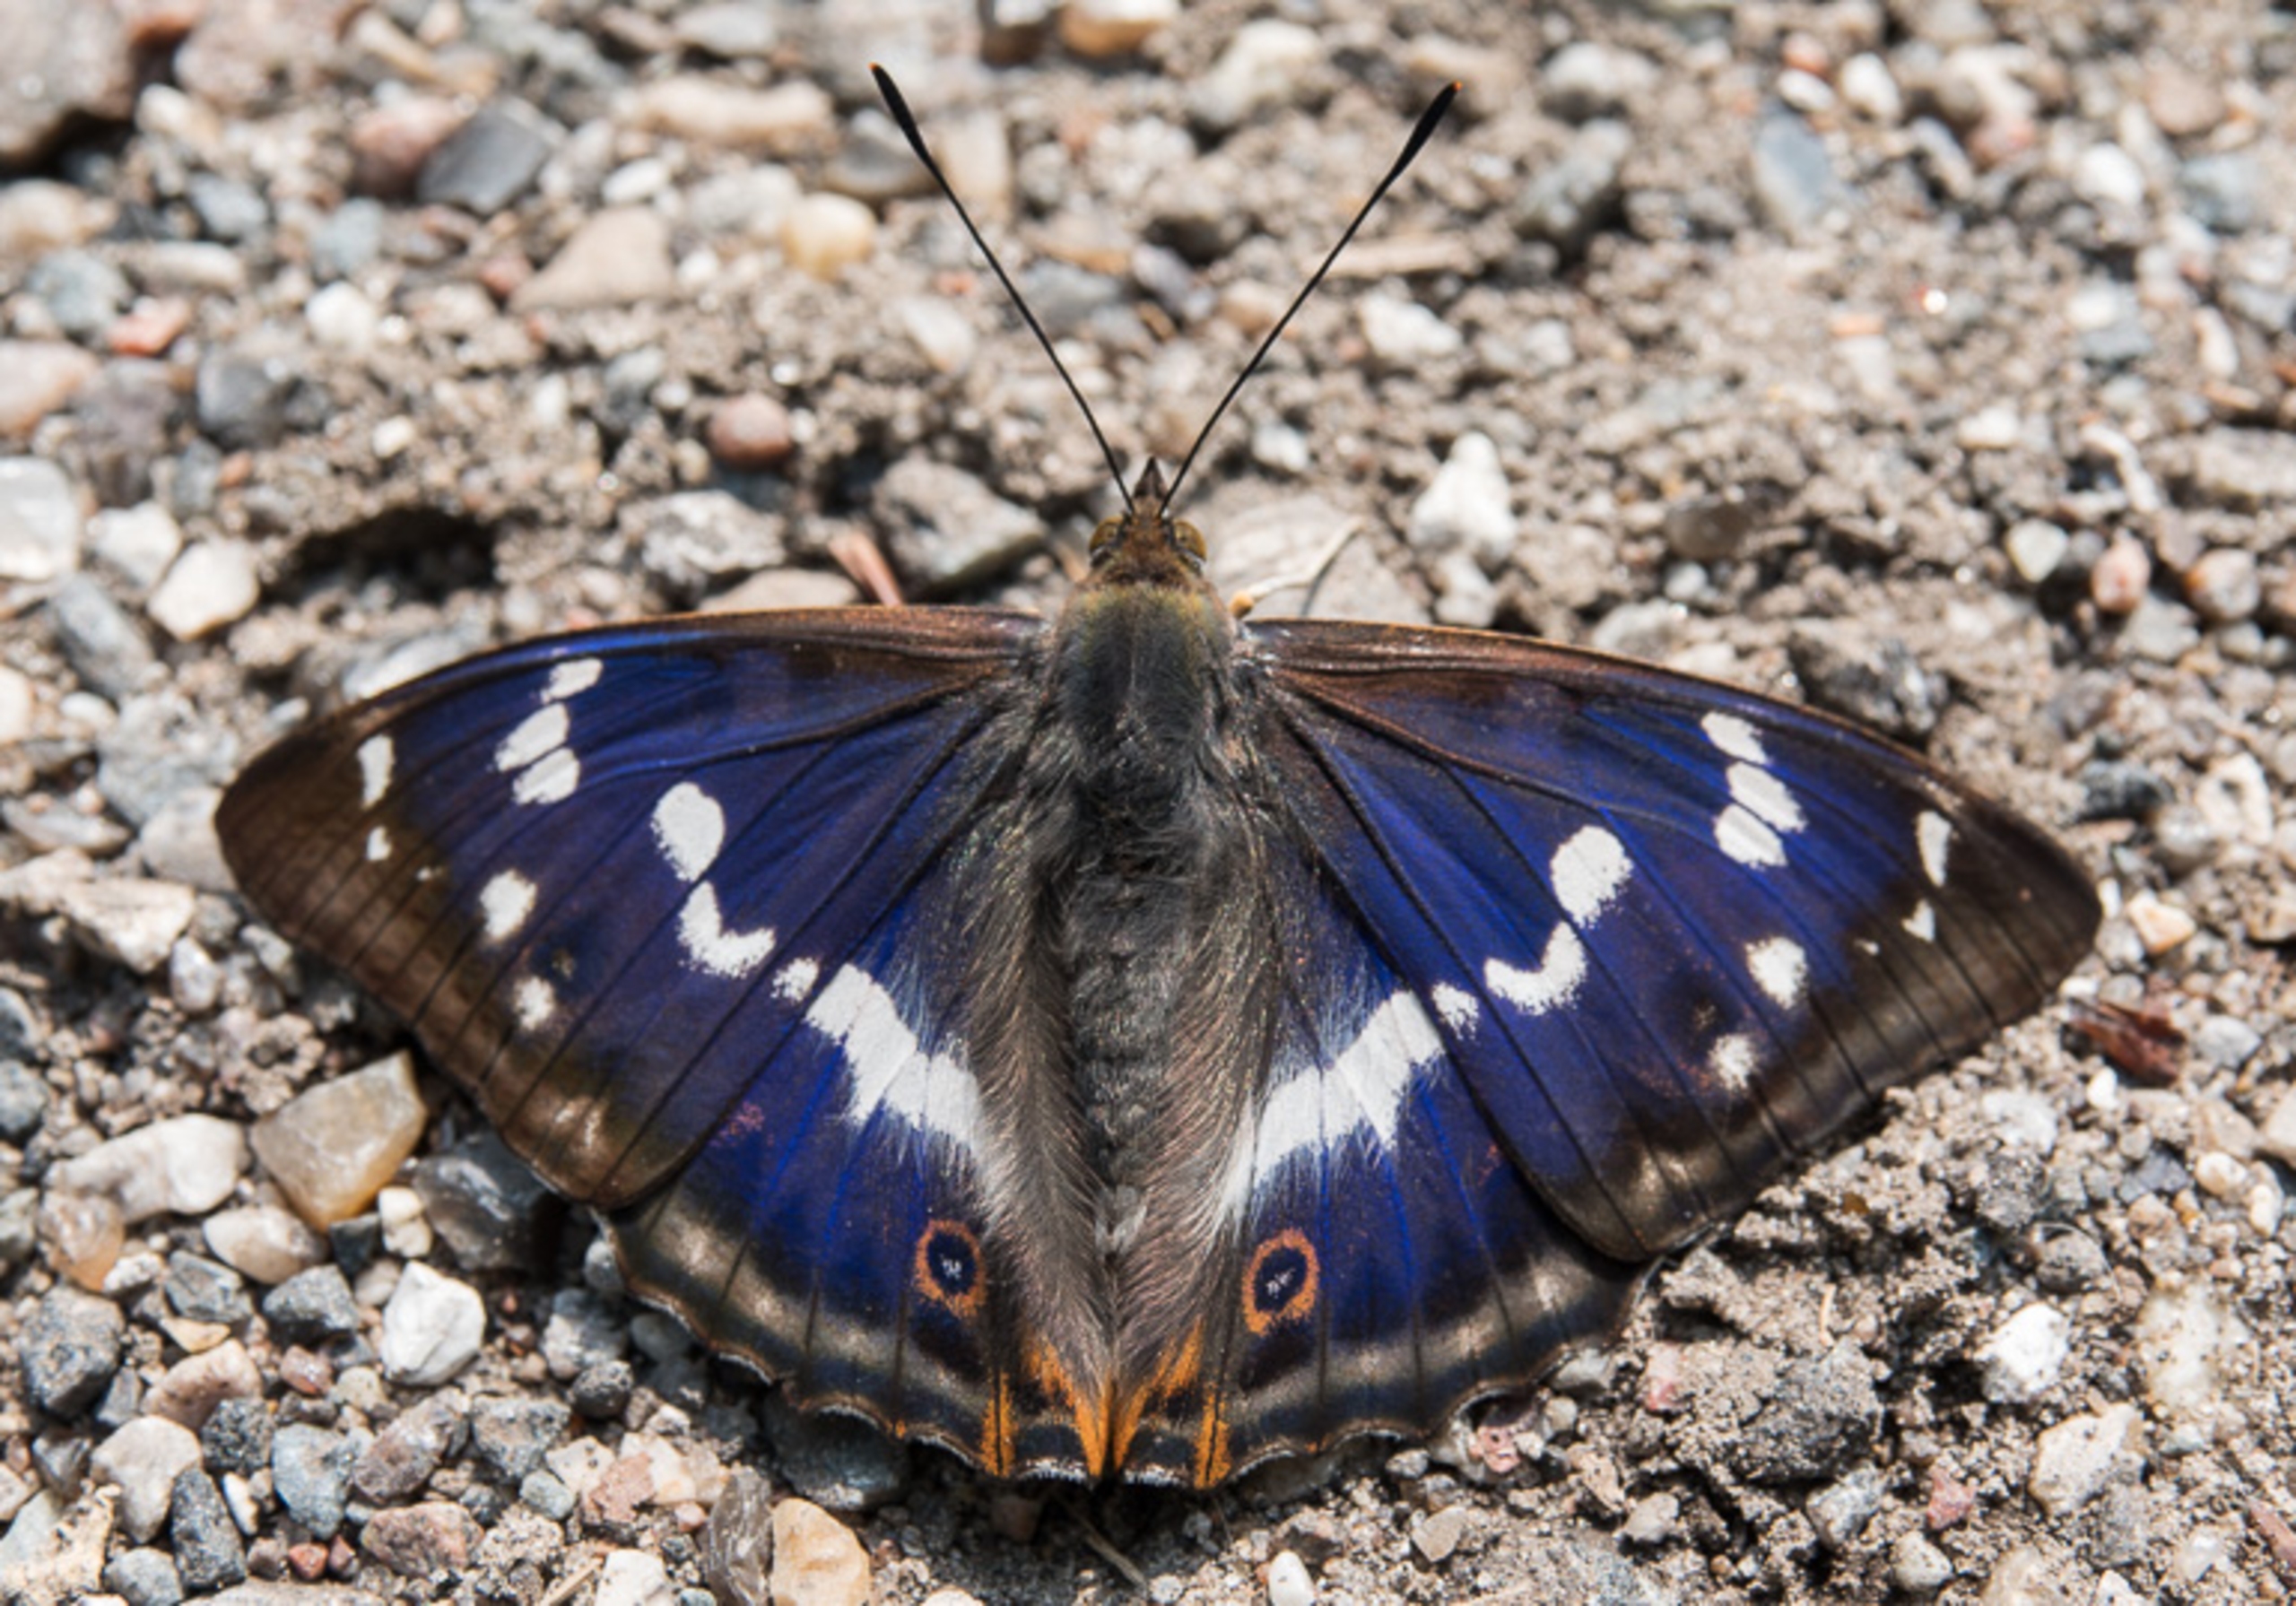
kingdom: Animalia
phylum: Arthropoda
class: Insecta
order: Lepidoptera
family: Nymphalidae
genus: Apatura
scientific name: Apatura iris
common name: Iris
